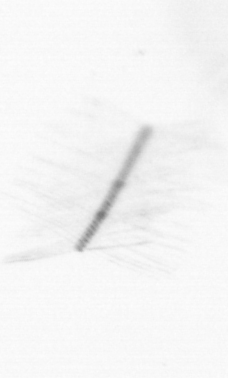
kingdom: Chromista
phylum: Ochrophyta
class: Bacillariophyceae
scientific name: Bacillariophyceae
